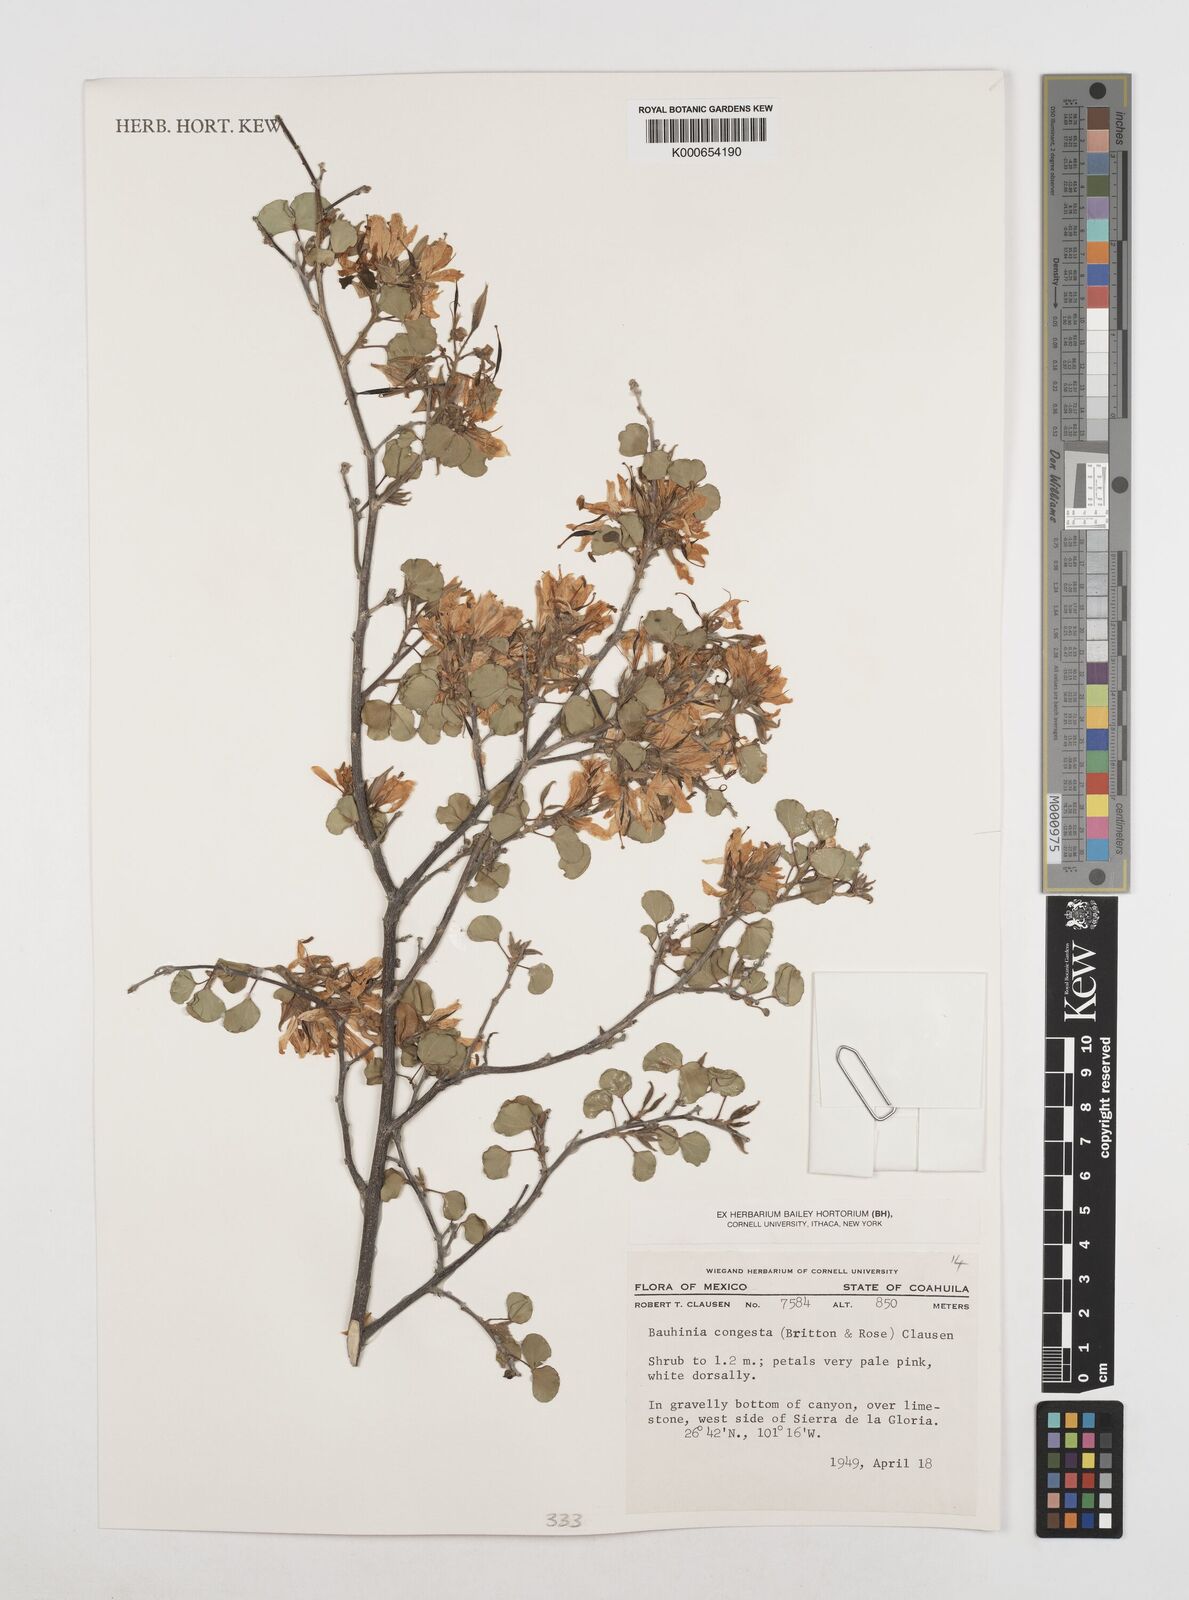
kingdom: Plantae
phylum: Tracheophyta
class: Magnoliopsida
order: Fabales
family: Fabaceae
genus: Bauhinia
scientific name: Bauhinia
